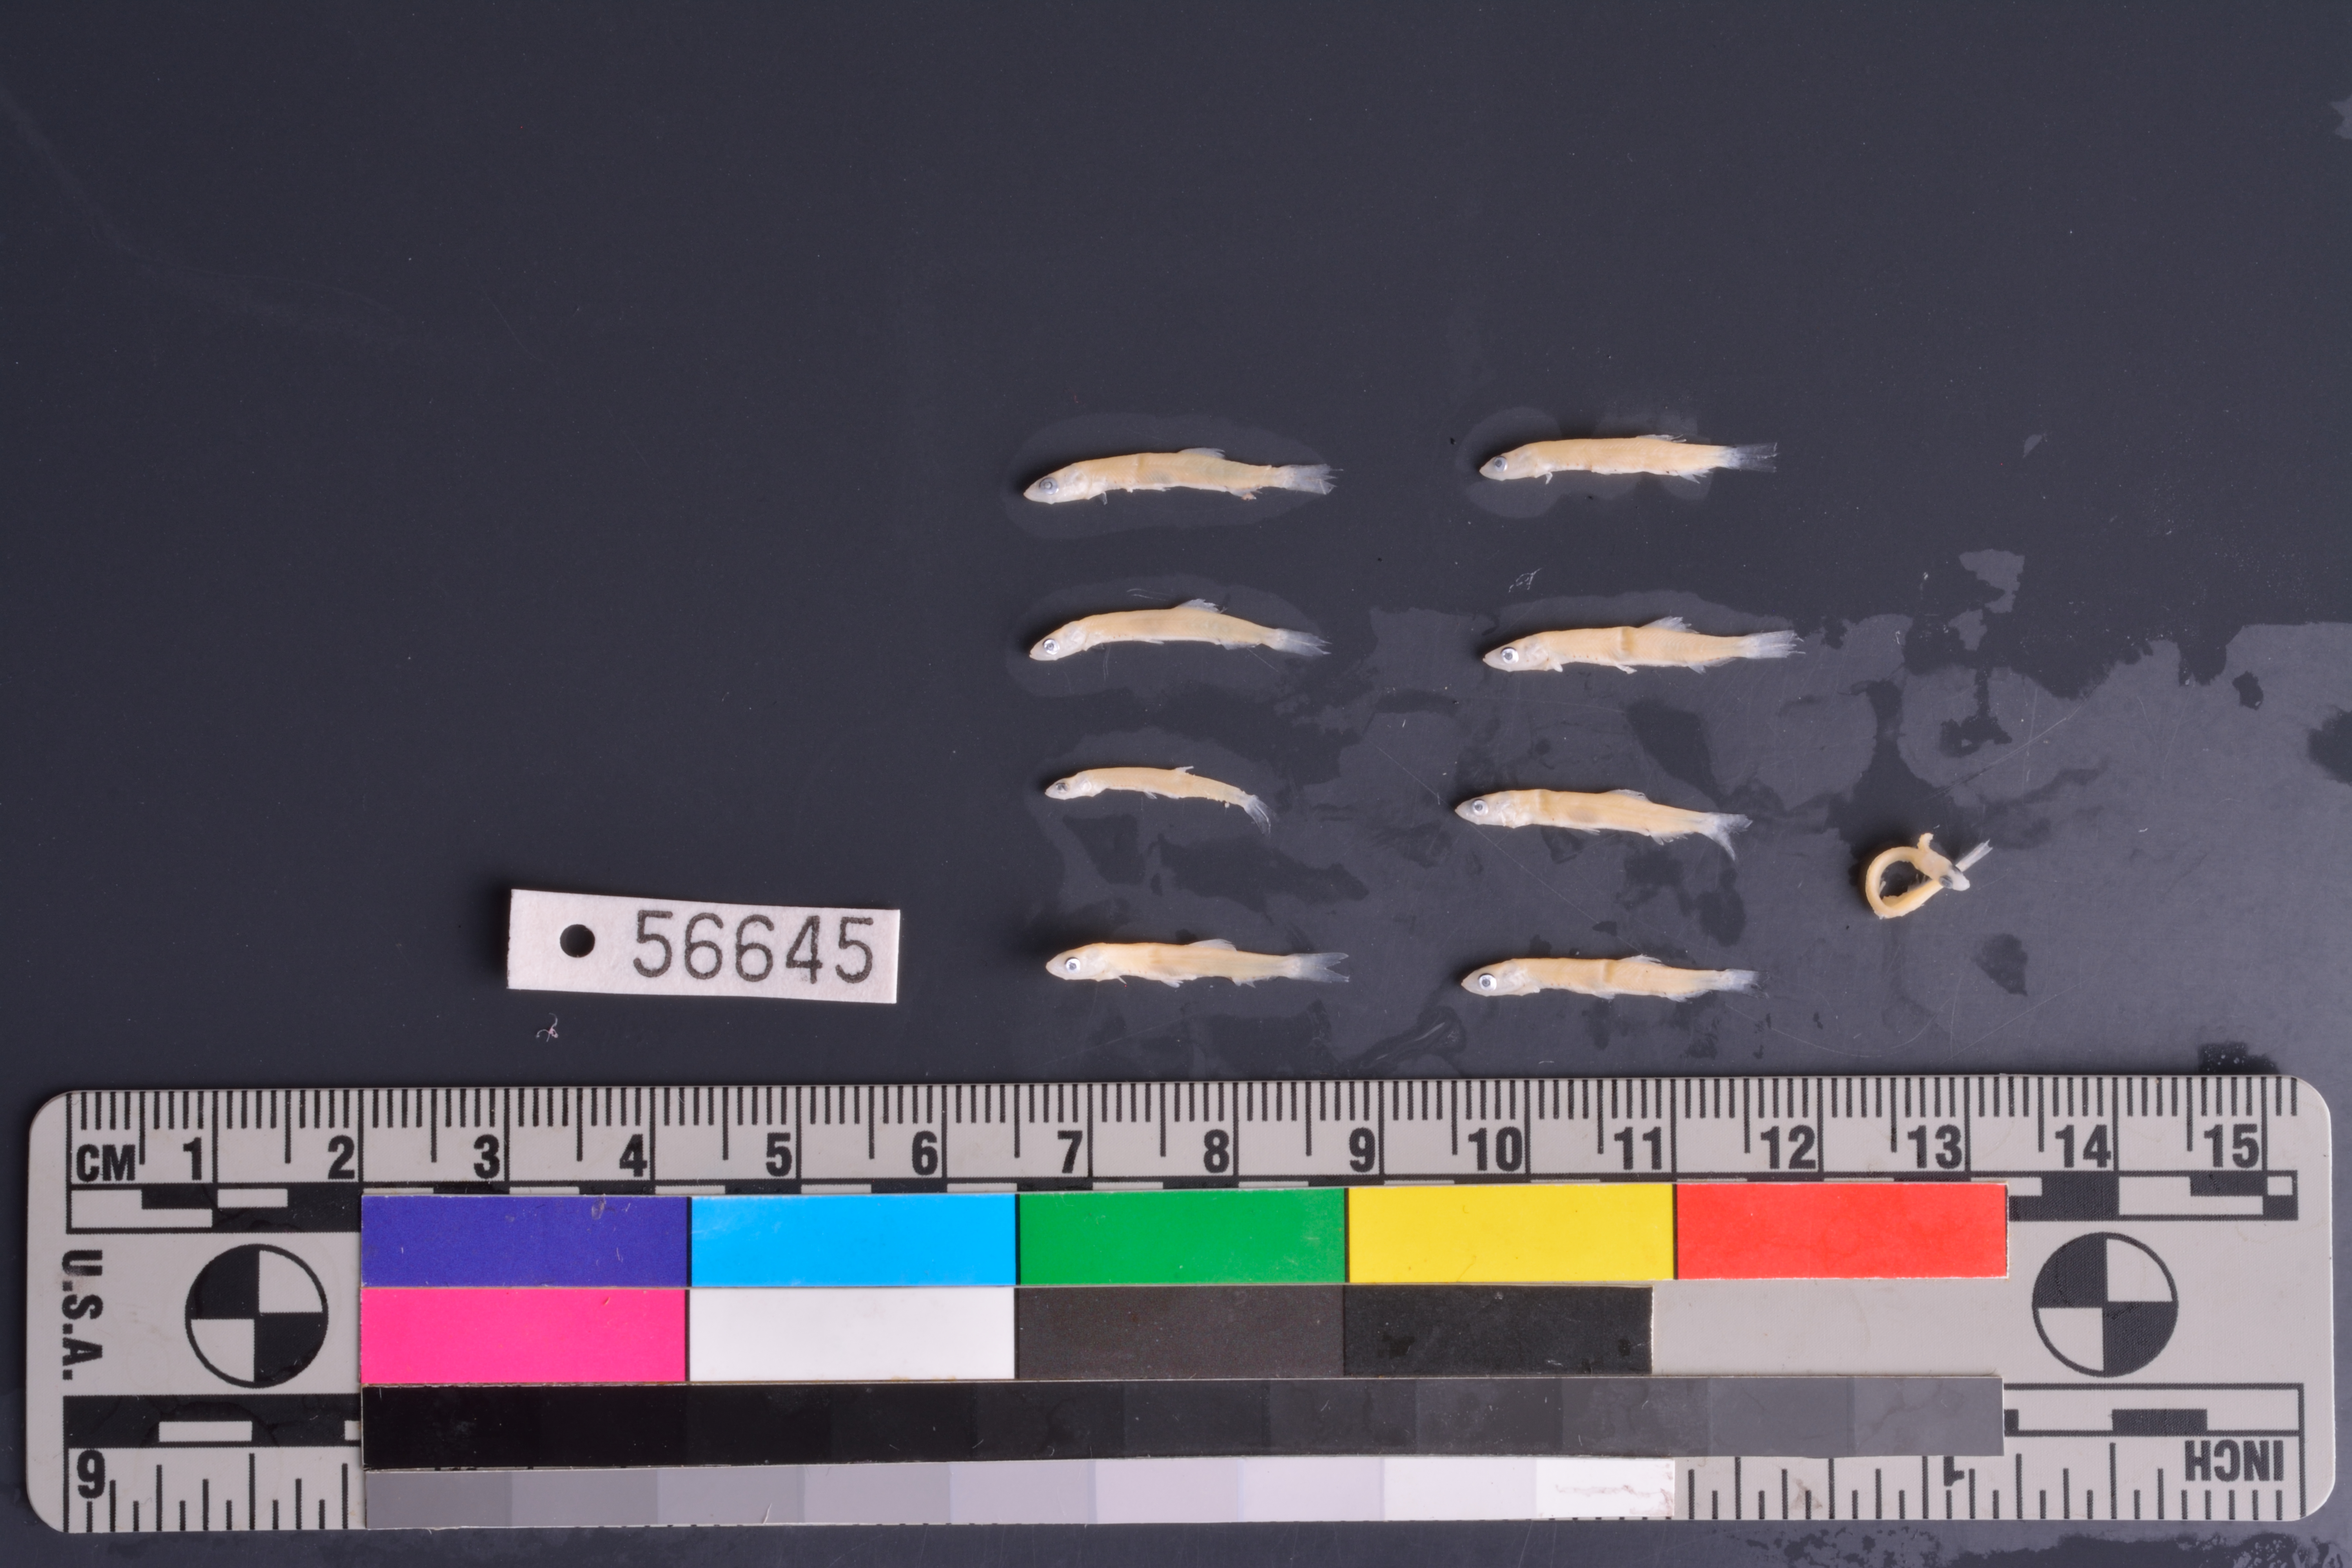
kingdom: Animalia
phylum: Chordata
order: Clupeiformes
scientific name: Clupeiformes
